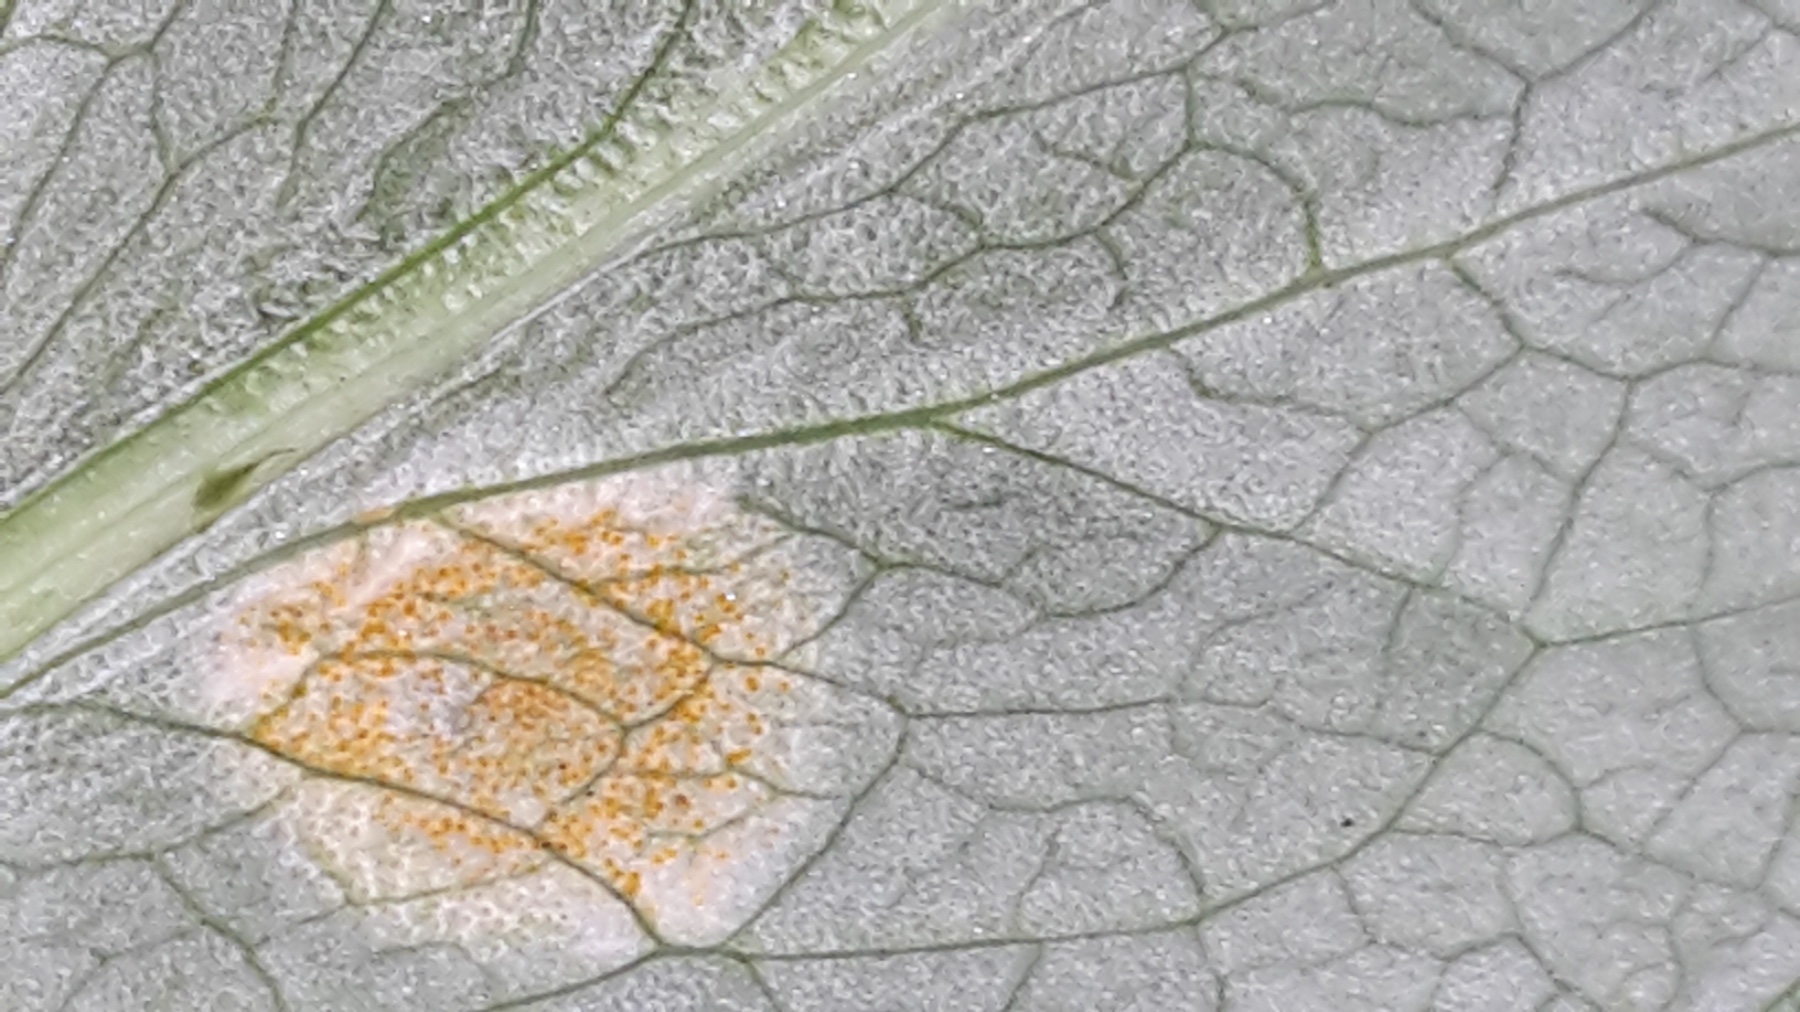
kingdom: Fungi
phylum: Basidiomycota
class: Pucciniomycetes
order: Pucciniales
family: Pucciniaceae
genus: Puccinia
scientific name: Puccinia sessilis
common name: Arum rust
